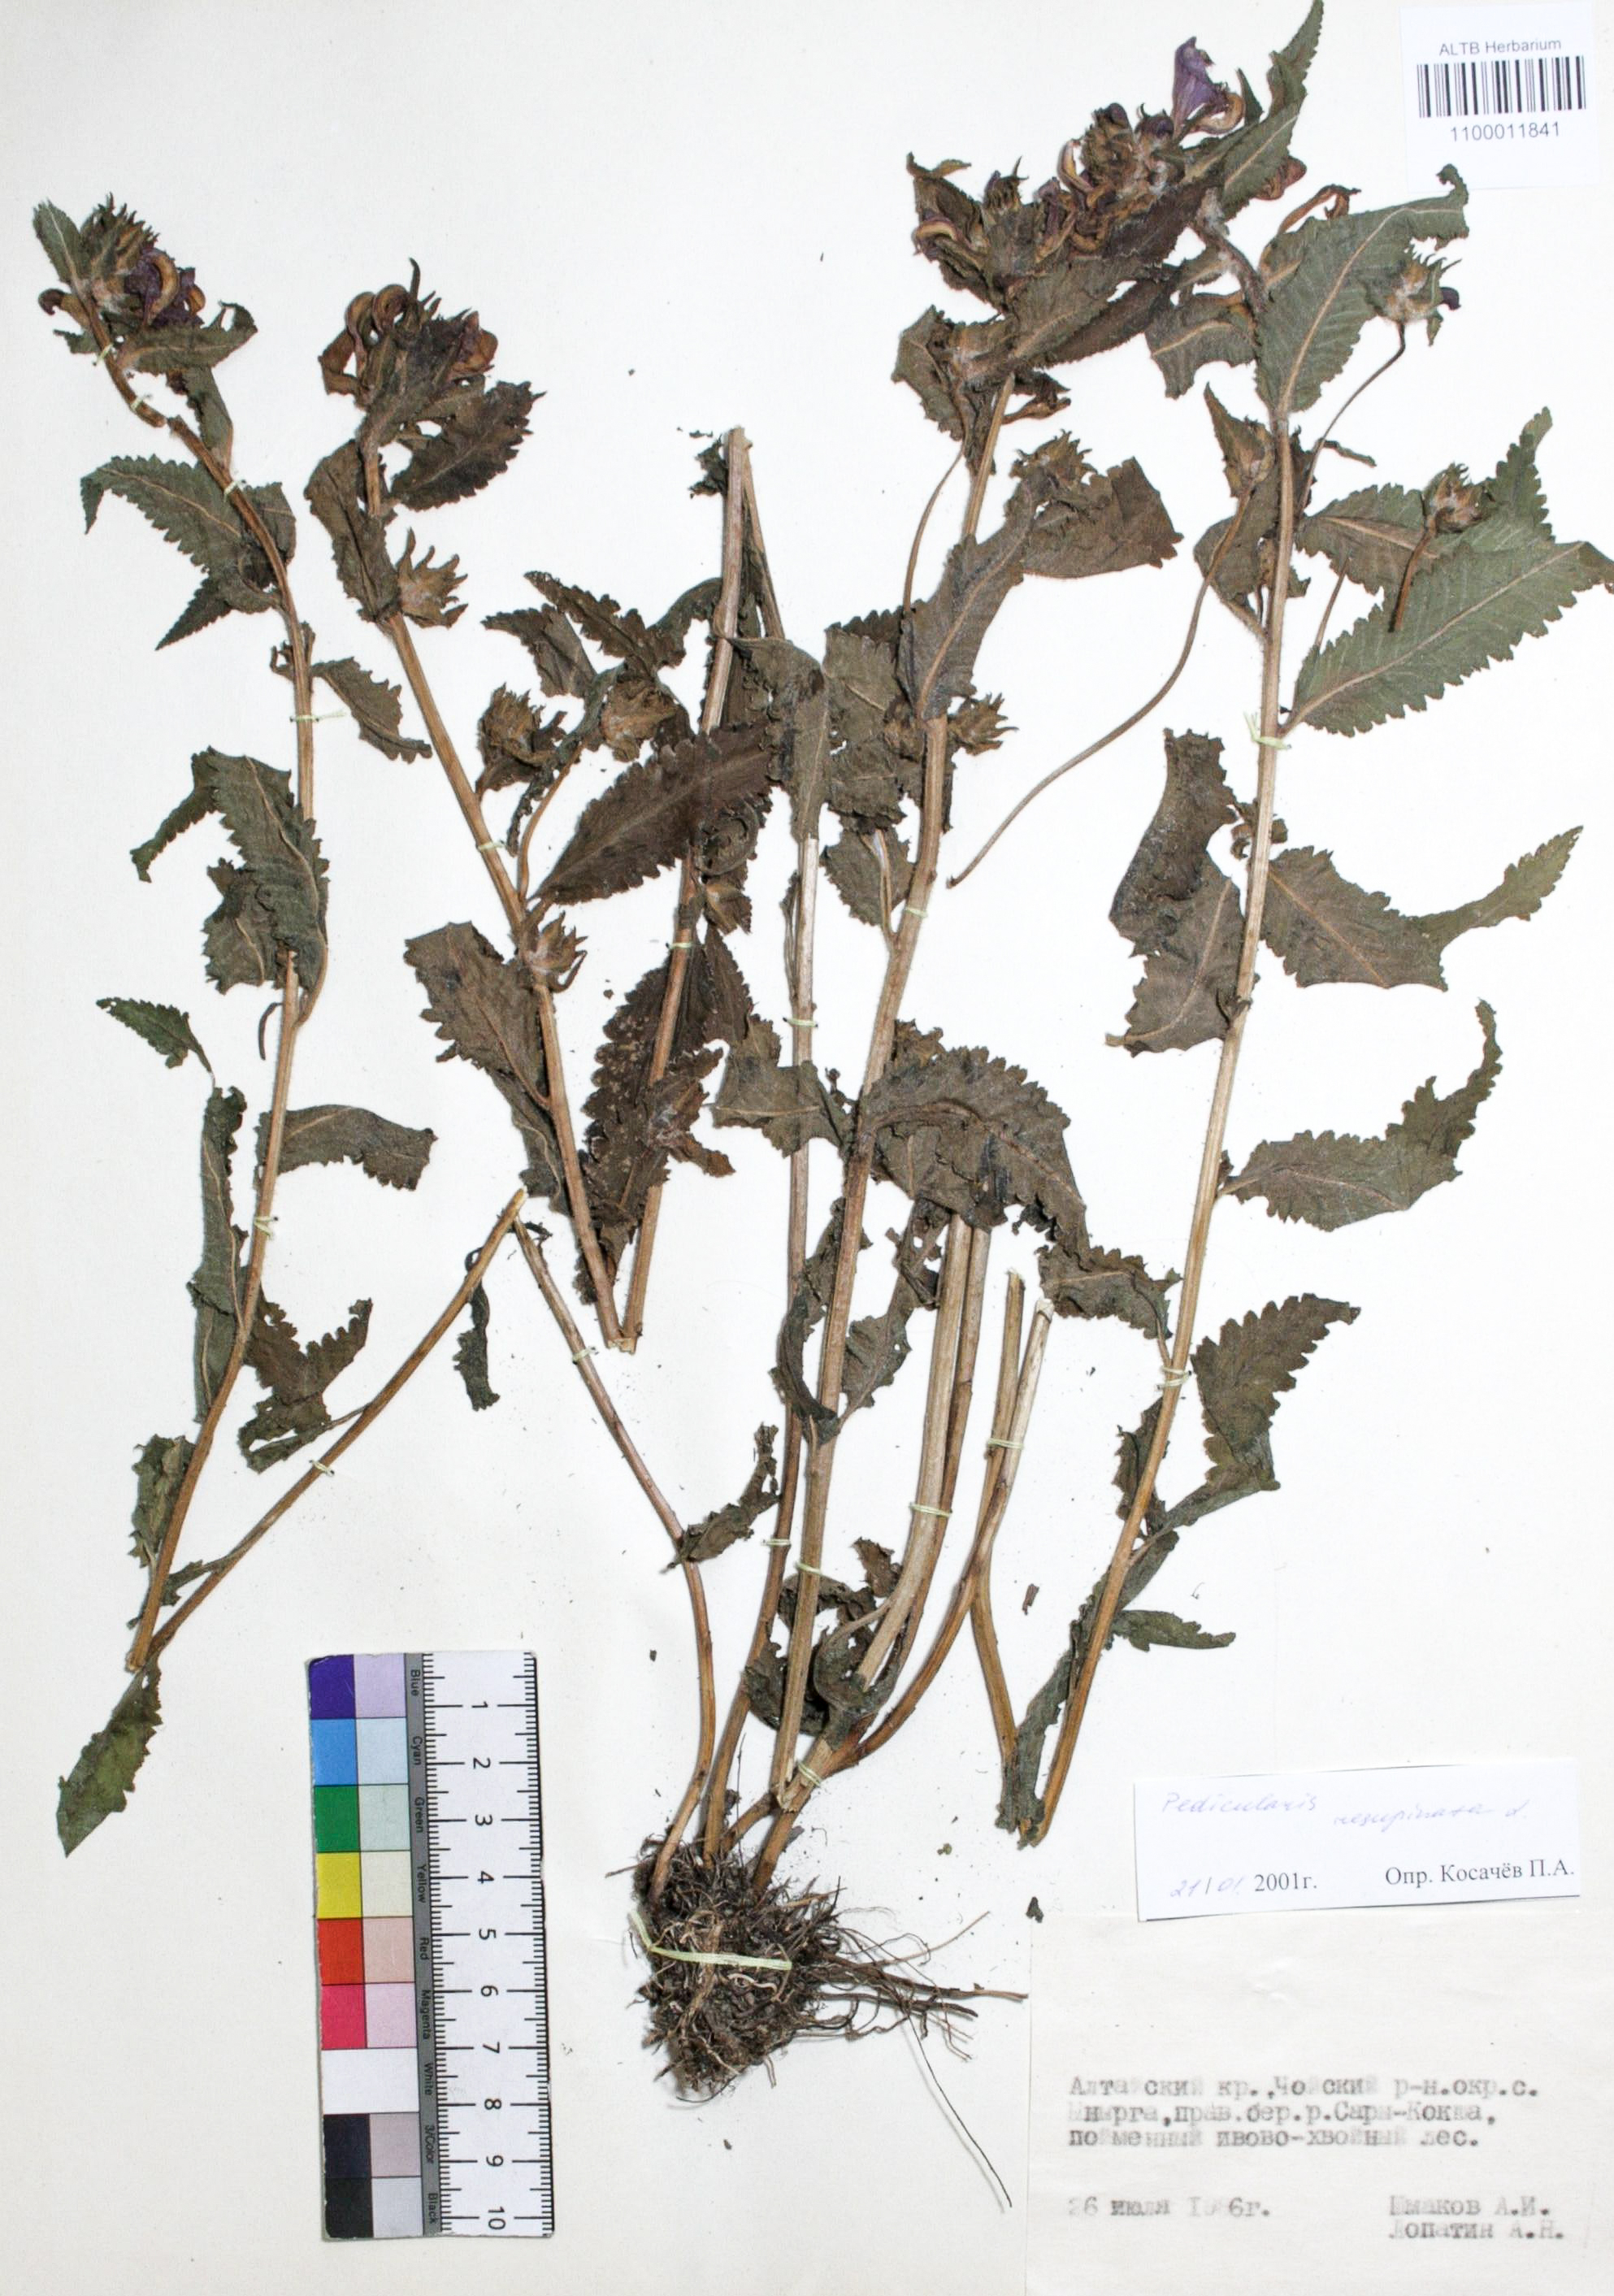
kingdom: Plantae
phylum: Tracheophyta
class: Magnoliopsida
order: Lamiales
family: Orobanchaceae
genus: Pedicularis
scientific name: Pedicularis resupinata
